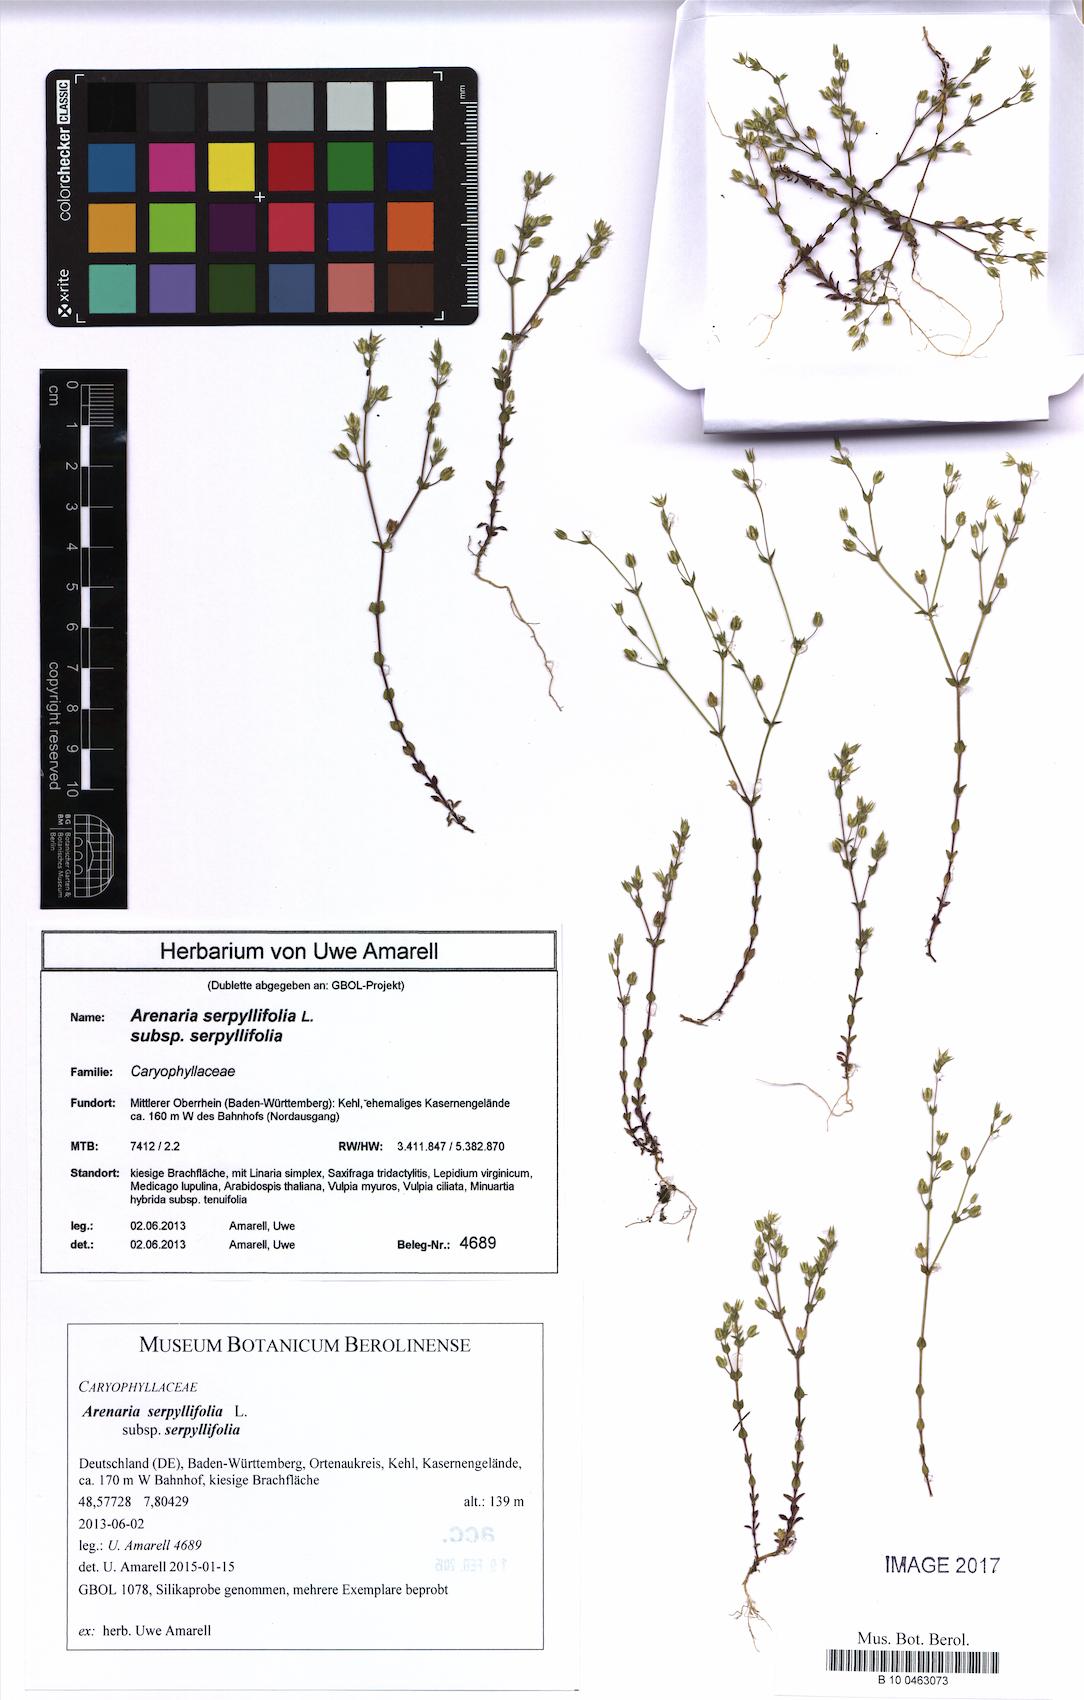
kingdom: Plantae
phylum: Tracheophyta
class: Magnoliopsida
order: Caryophyllales
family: Caryophyllaceae
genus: Arenaria
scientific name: Arenaria serpyllifolia
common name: Thyme-leaved sandwort
